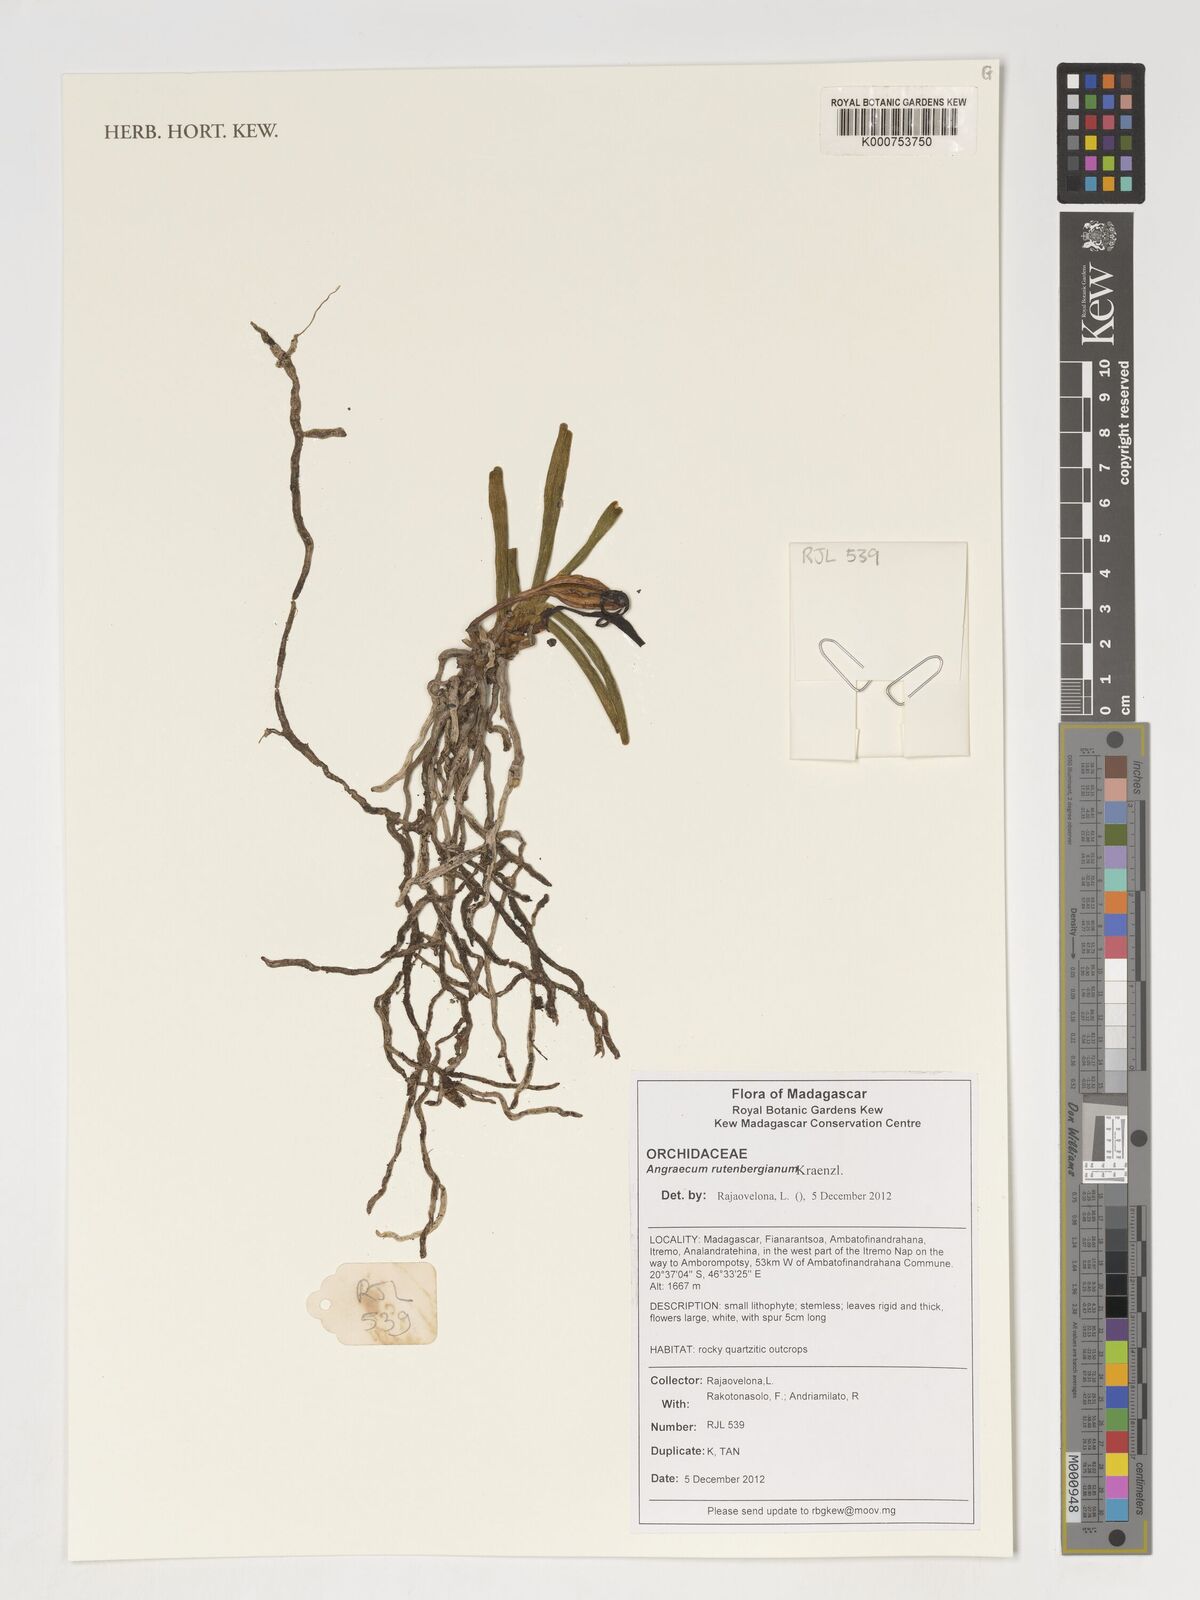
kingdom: Plantae
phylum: Tracheophyta
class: Liliopsida
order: Asparagales
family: Orchidaceae
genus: Angraecum
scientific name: Angraecum rutenbergianum
